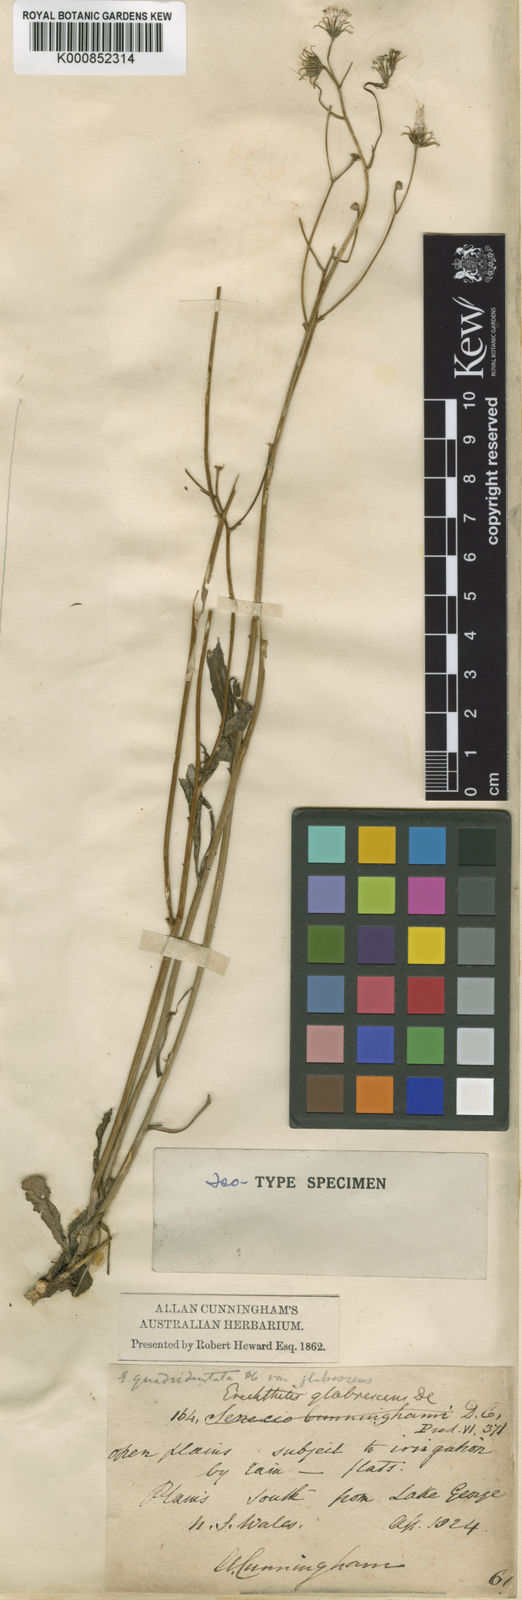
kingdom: Plantae
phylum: Tracheophyta
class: Magnoliopsida
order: Asterales
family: Asteraceae
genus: Senecio
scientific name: Senecio quadridentatus
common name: Cotton fireweed
